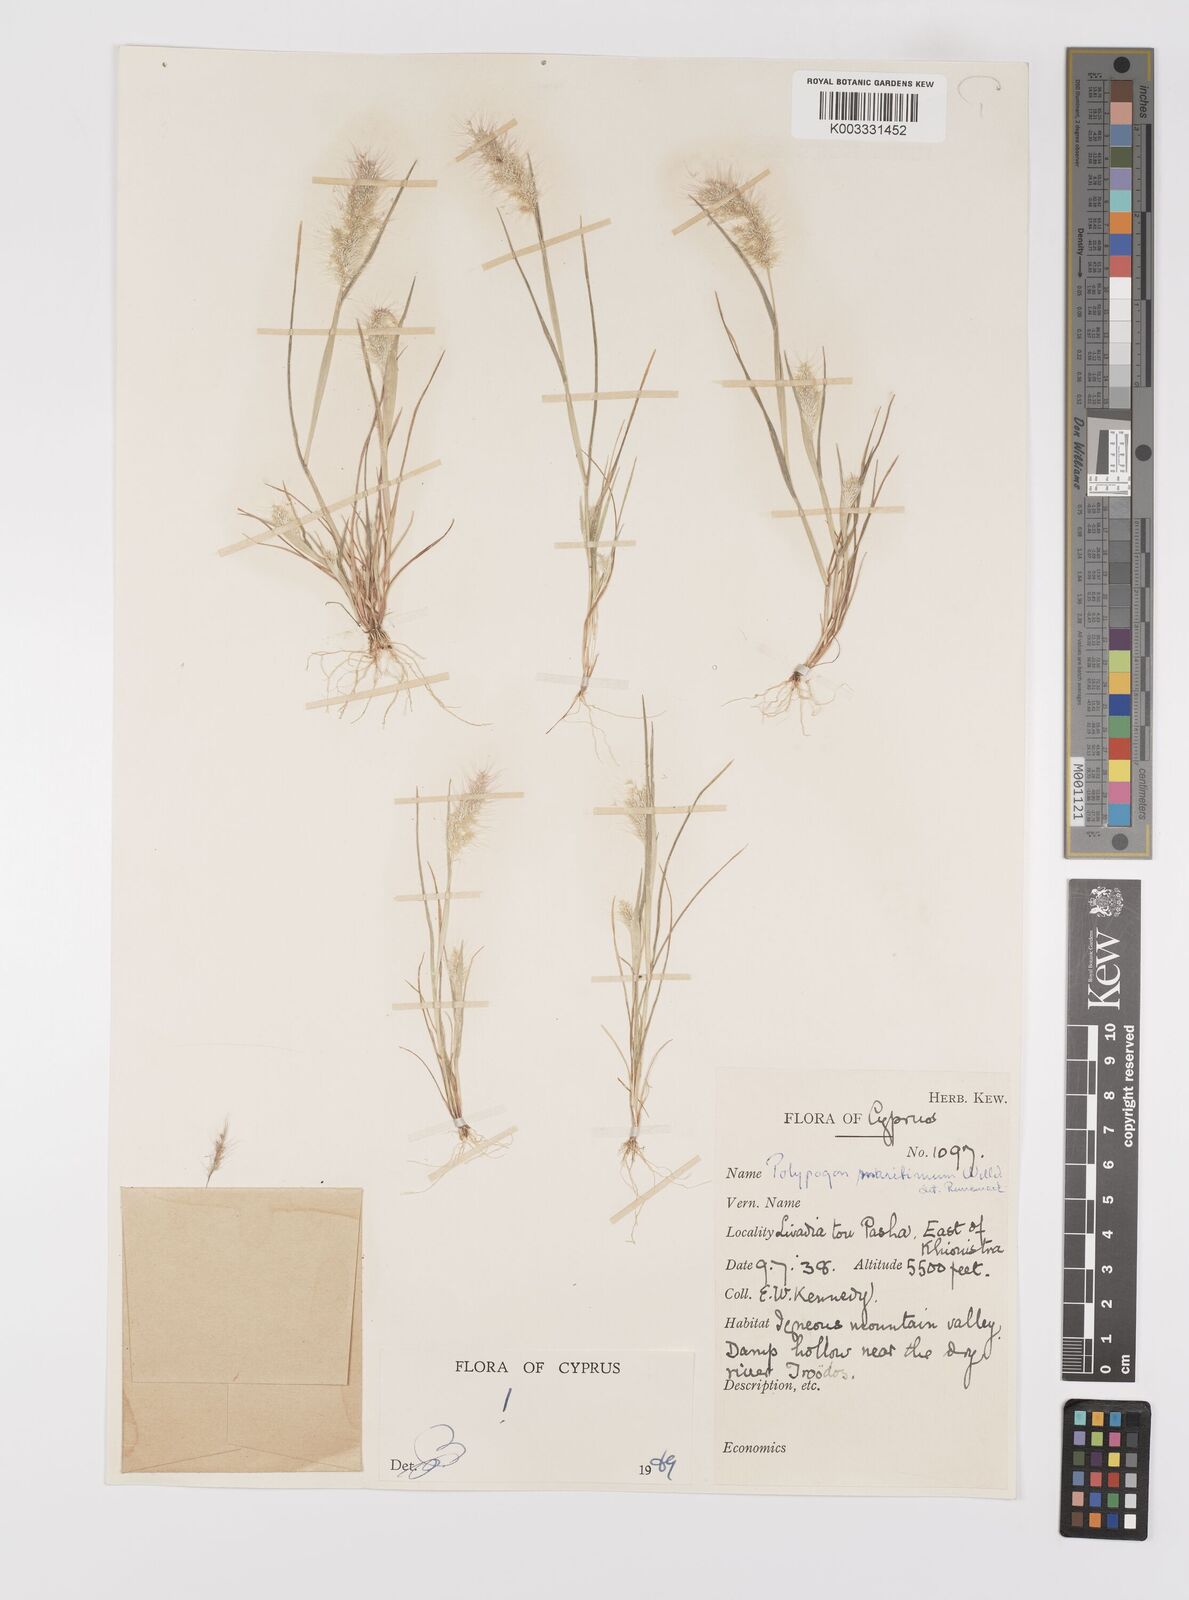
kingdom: Plantae
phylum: Tracheophyta
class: Liliopsida
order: Poales
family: Poaceae
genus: Polypogon
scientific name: Polypogon maritimus
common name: Mediterranean rabbitsfoot grass
